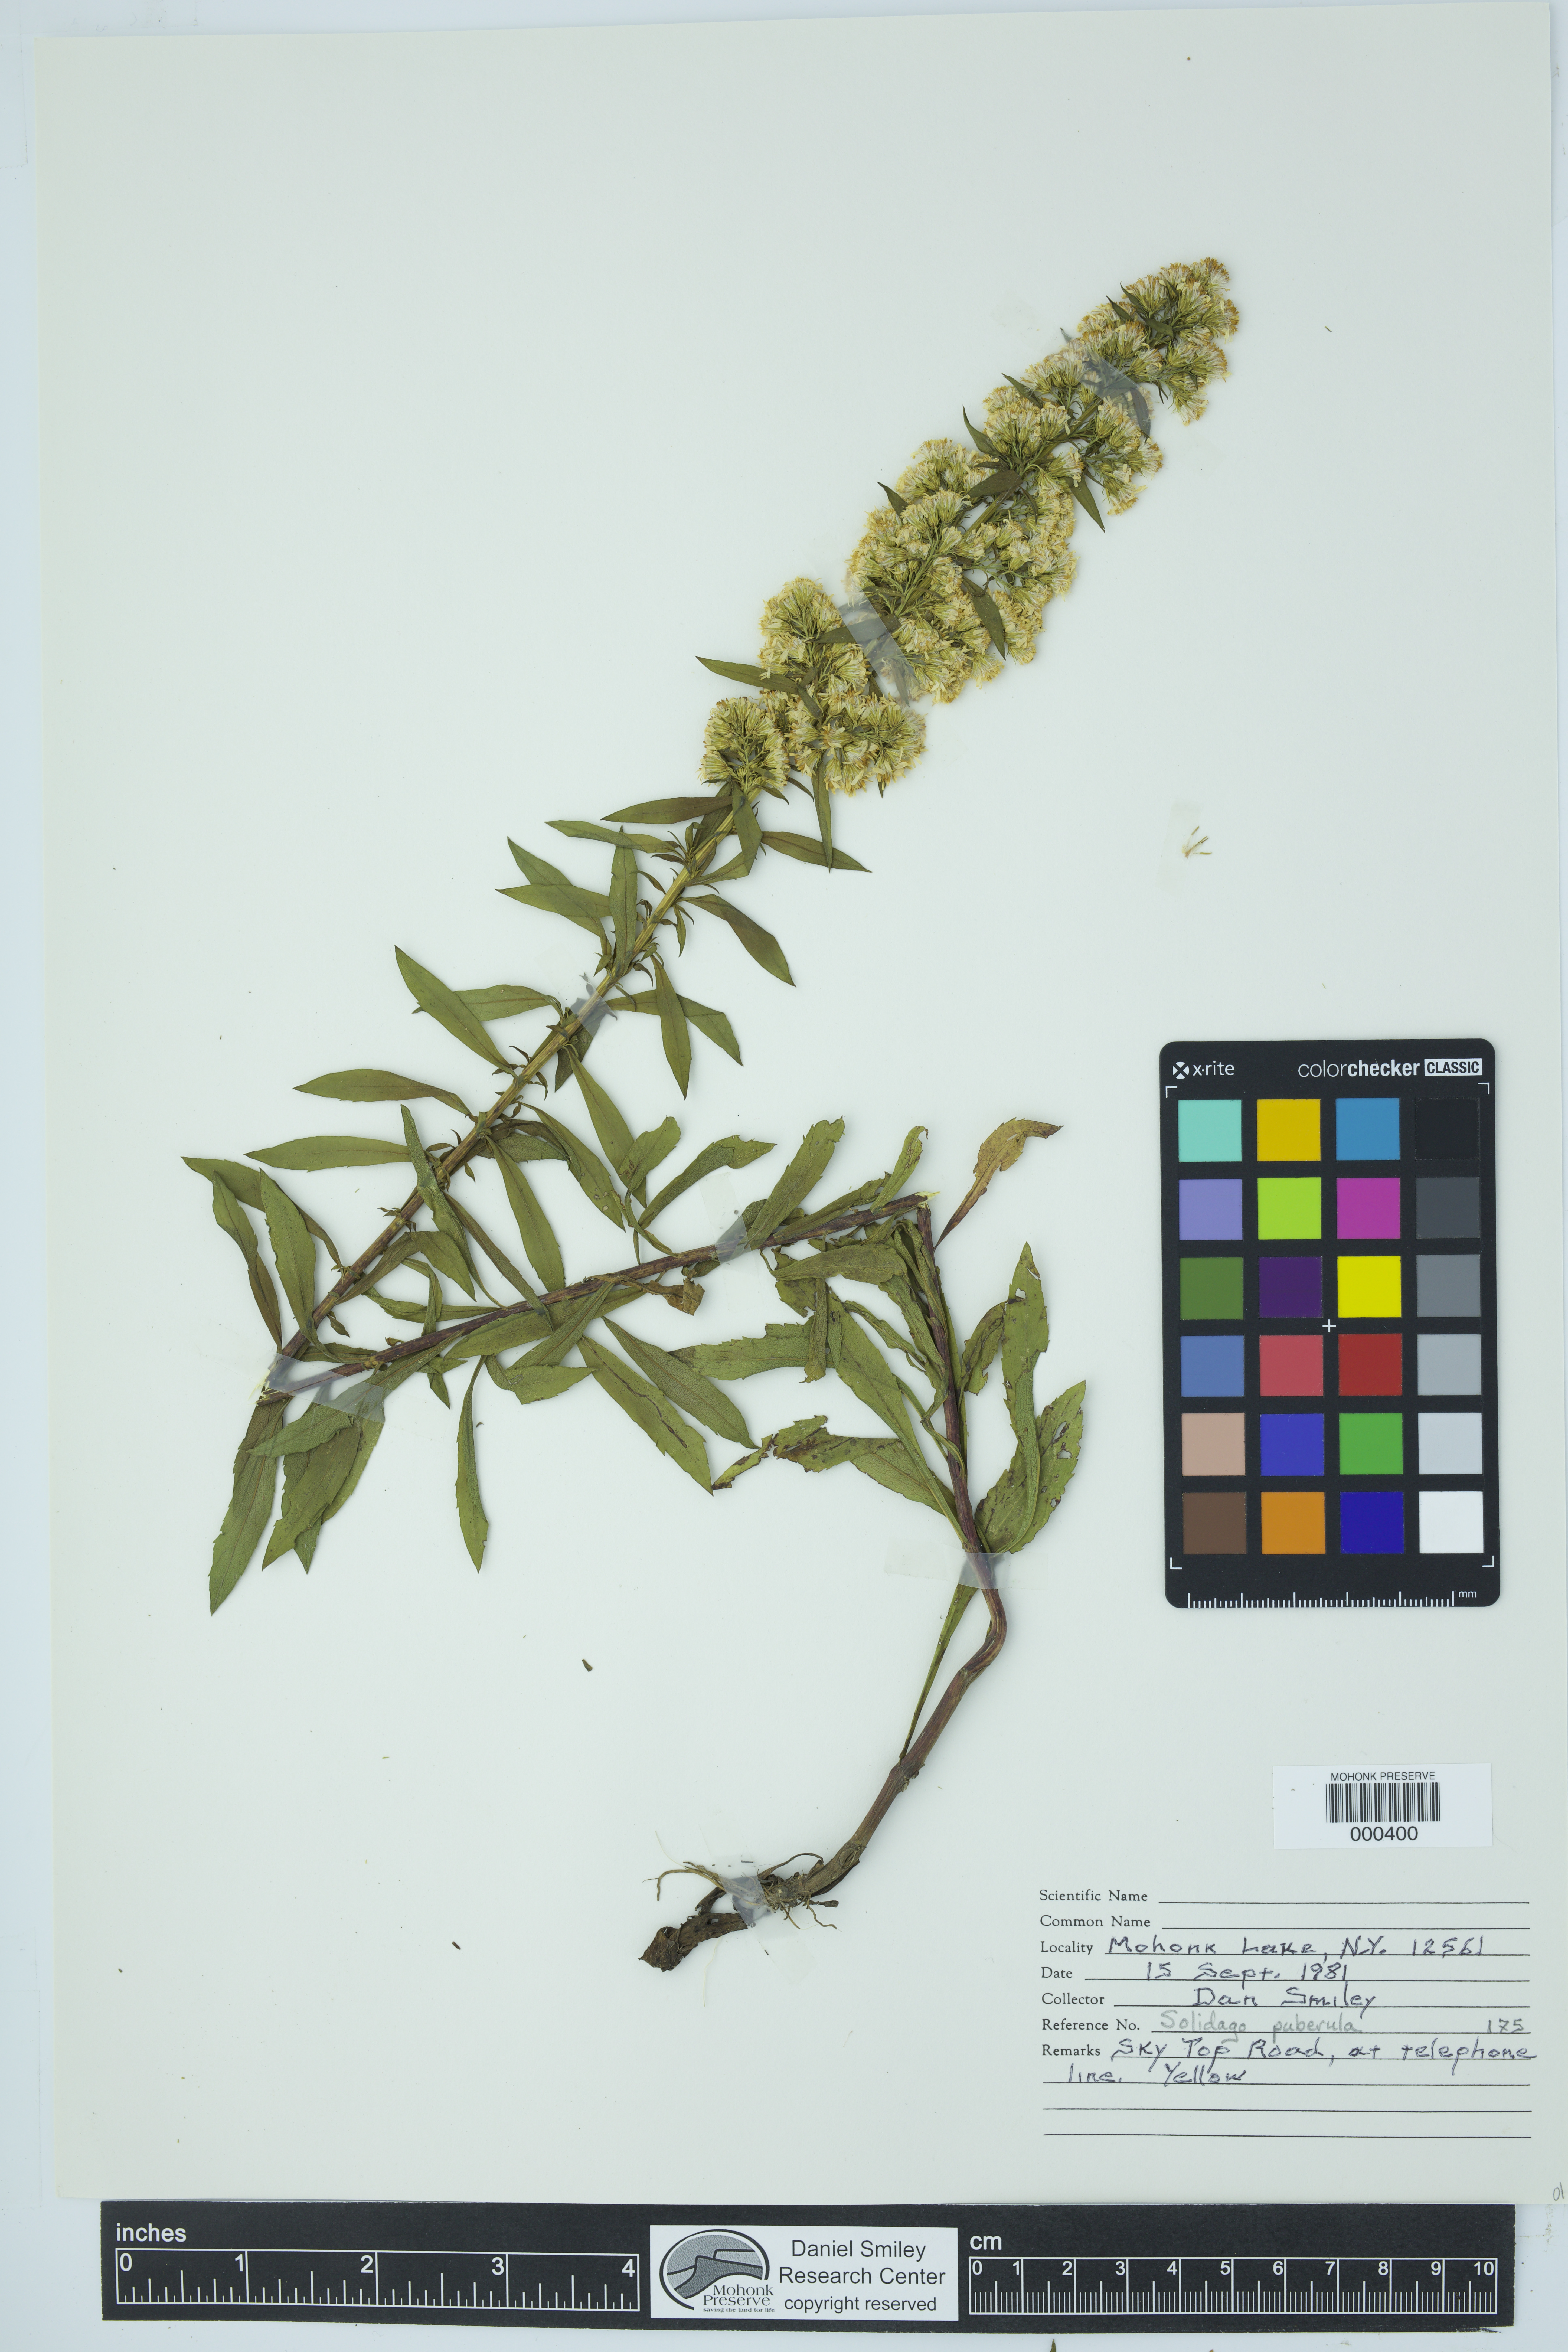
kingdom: Plantae
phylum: Tracheophyta
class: Magnoliopsida
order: Asterales
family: Asteraceae
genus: Solidago
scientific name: Solidago puberula
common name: Downy goldenrod
